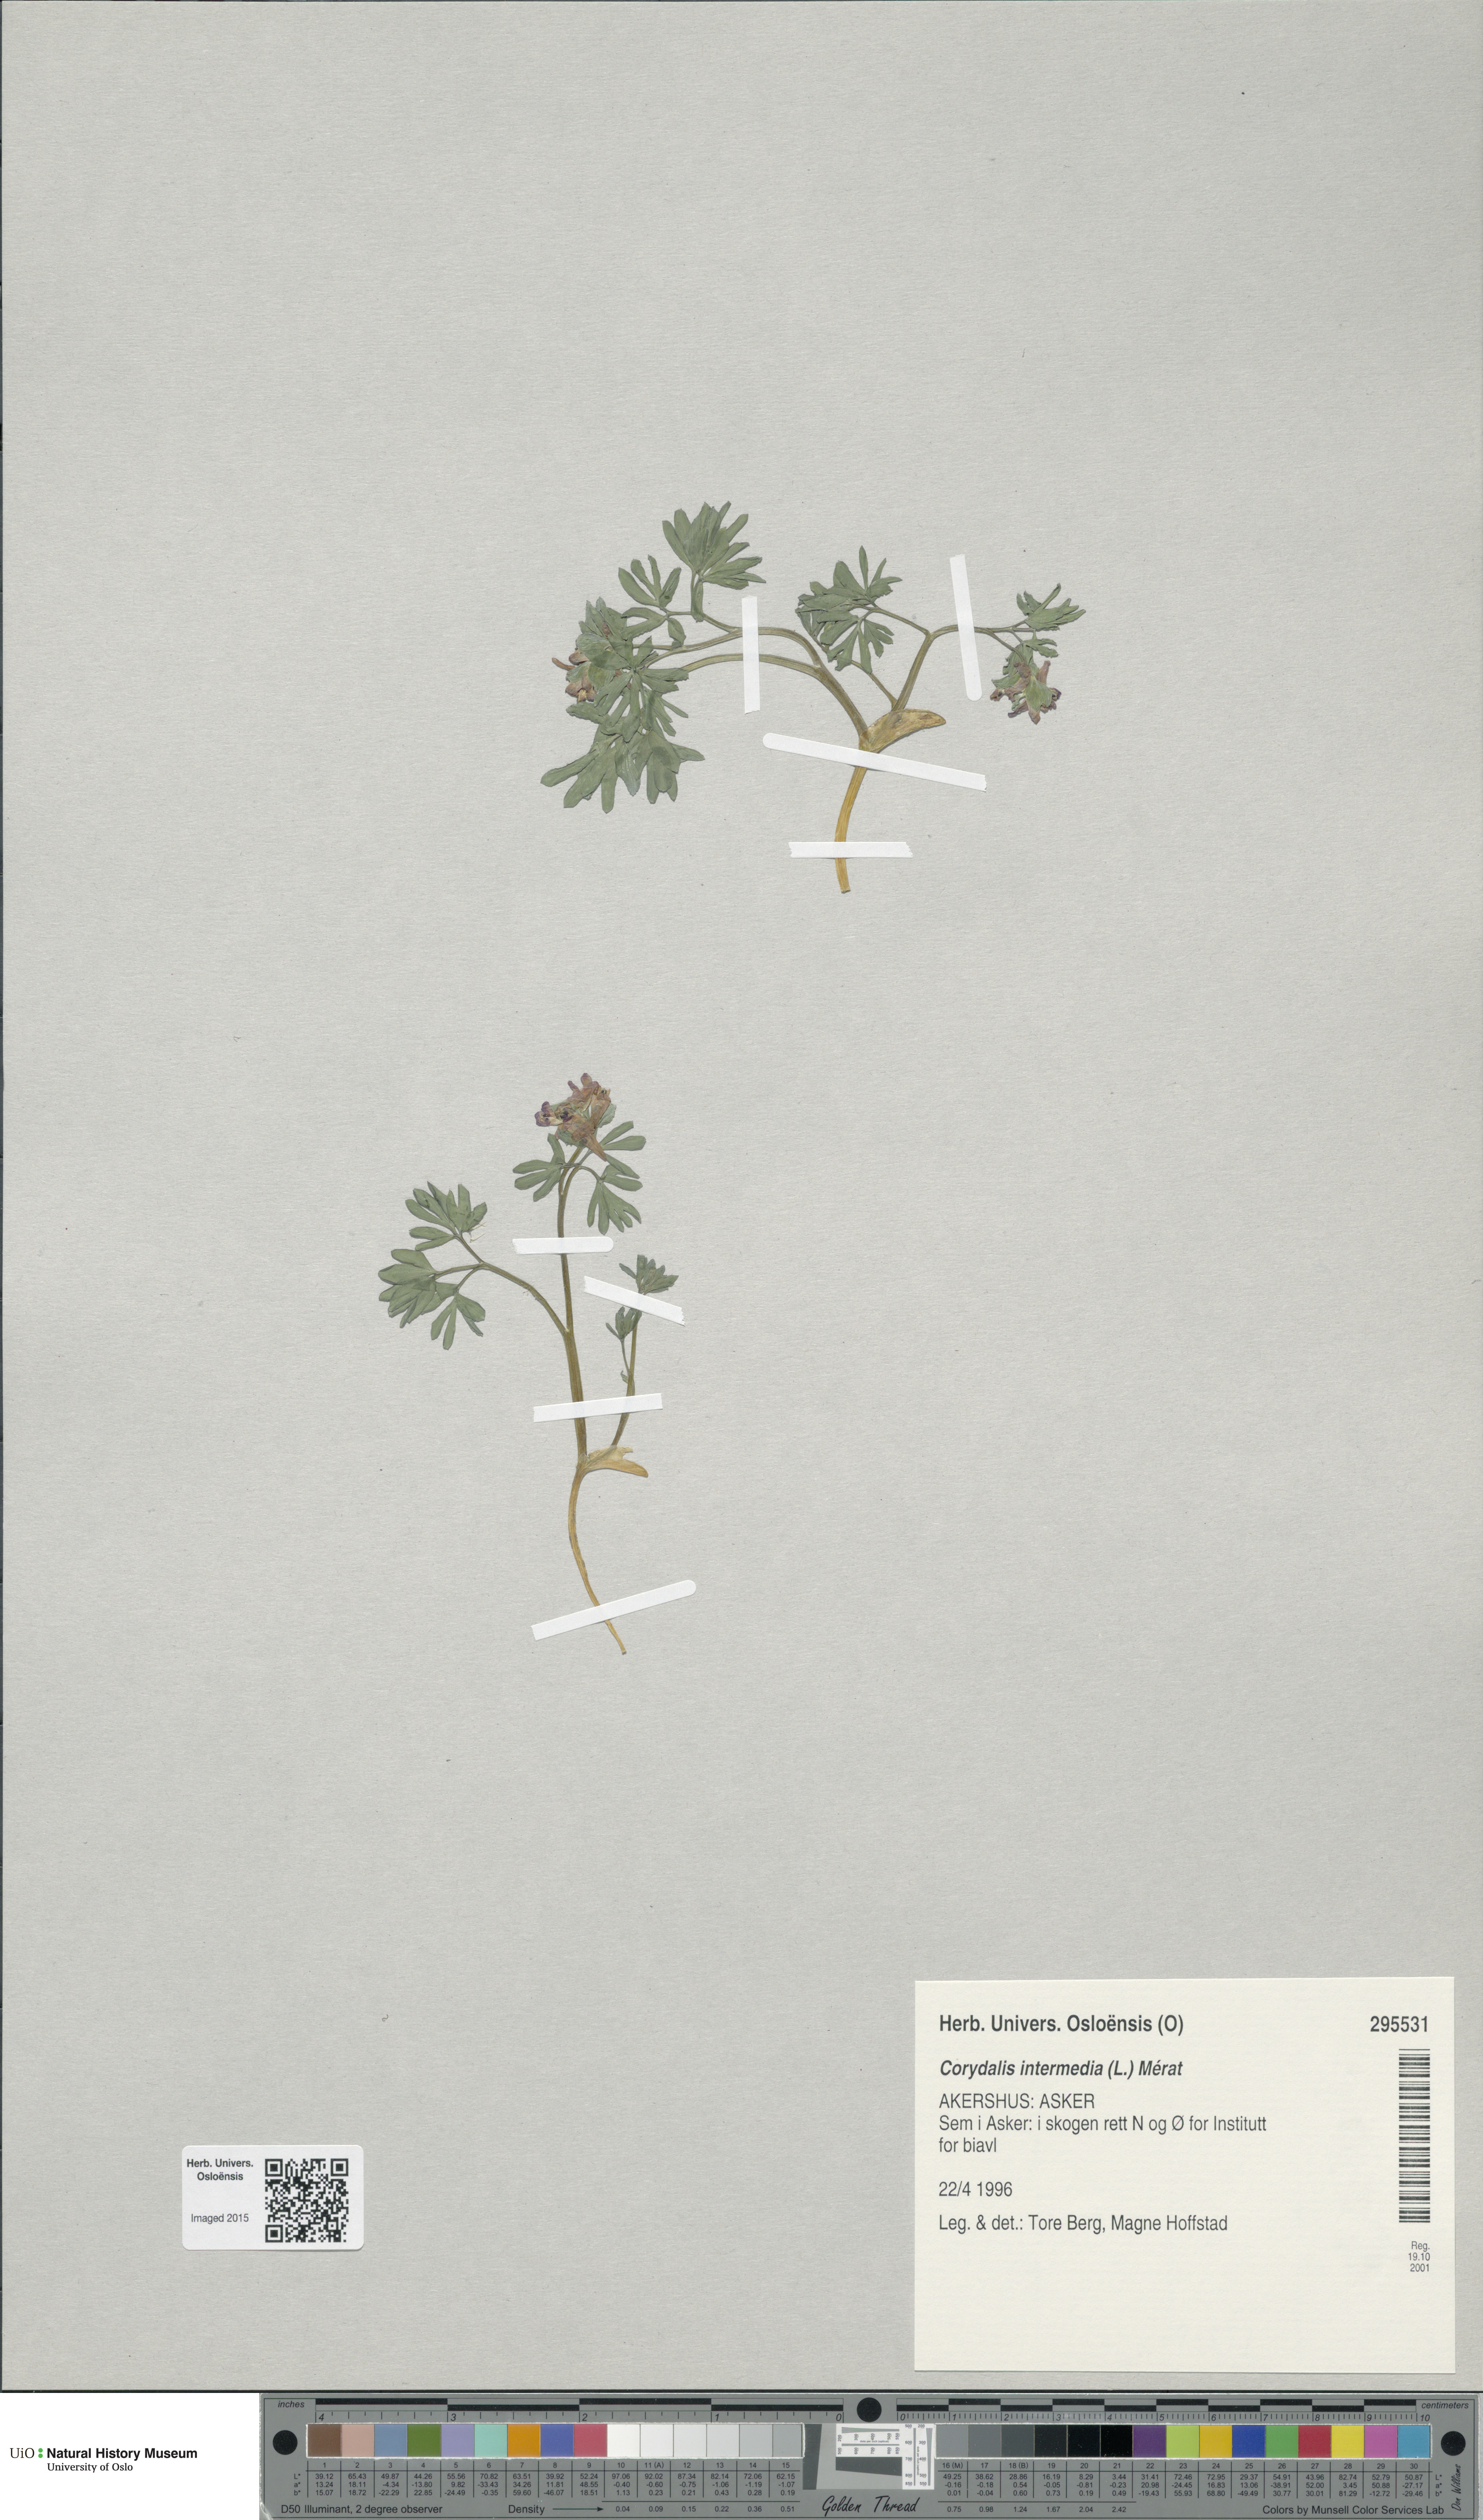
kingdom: Plantae
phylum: Tracheophyta
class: Magnoliopsida
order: Ranunculales
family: Papaveraceae
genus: Corydalis
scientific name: Corydalis intermedia
